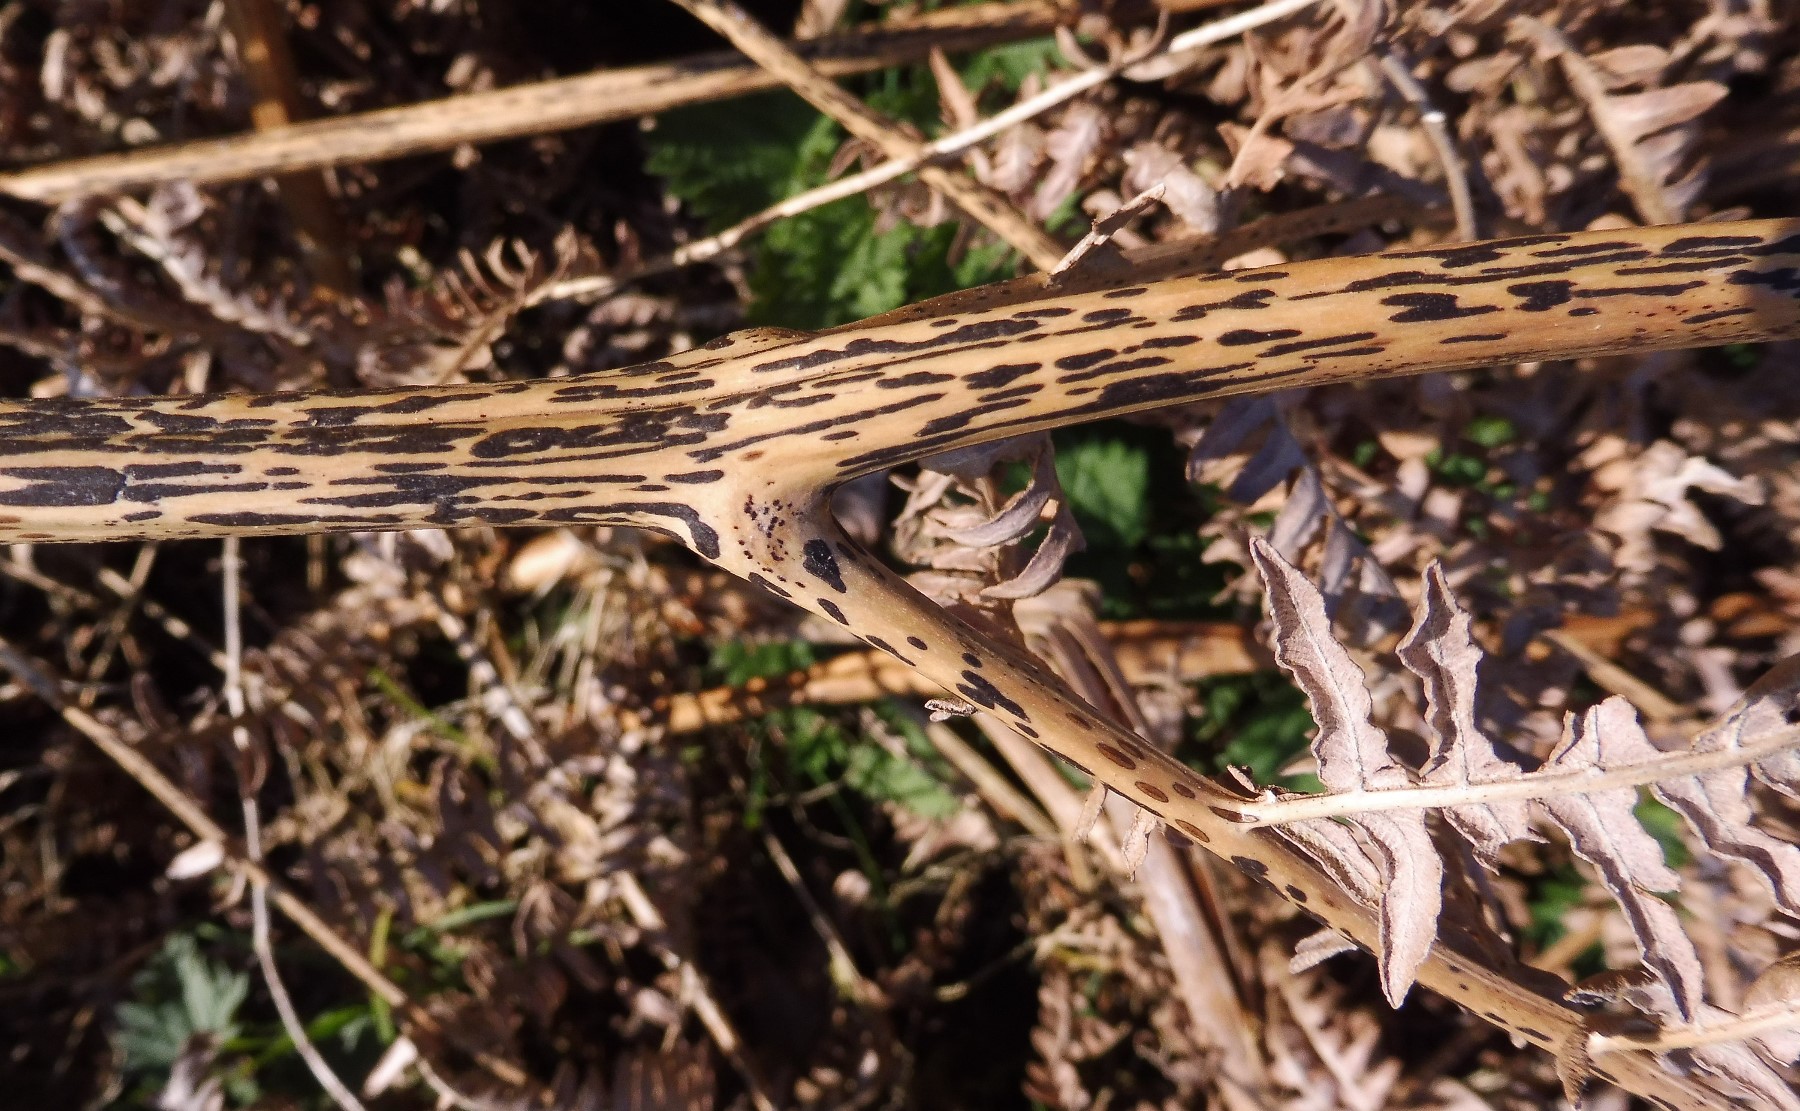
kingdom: Fungi
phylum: Ascomycota
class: Dothideomycetes
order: Pleosporales
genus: Rhopographus
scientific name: Rhopographus filicinus
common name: Bracken map
